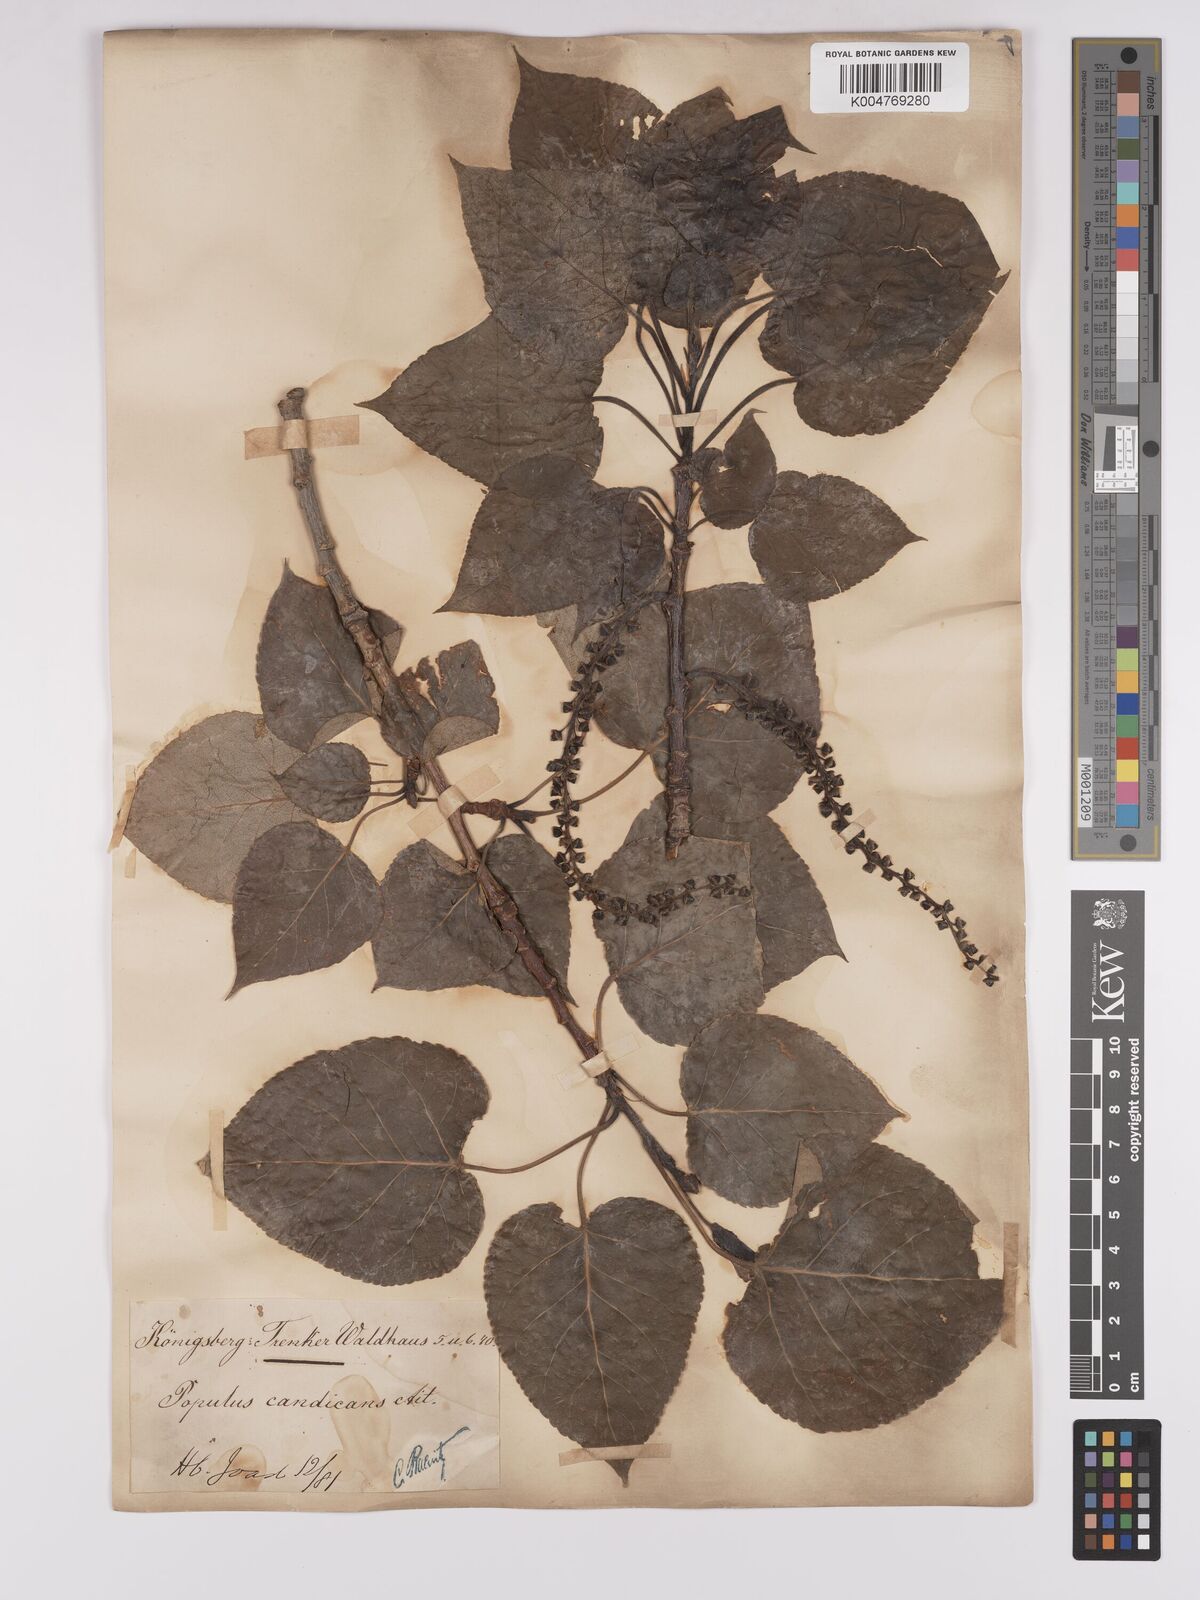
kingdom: Plantae
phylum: Tracheophyta
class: Magnoliopsida
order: Malpighiales
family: Salicaceae
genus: Populus
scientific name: Populus balsamifera
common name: Balsam poplar
